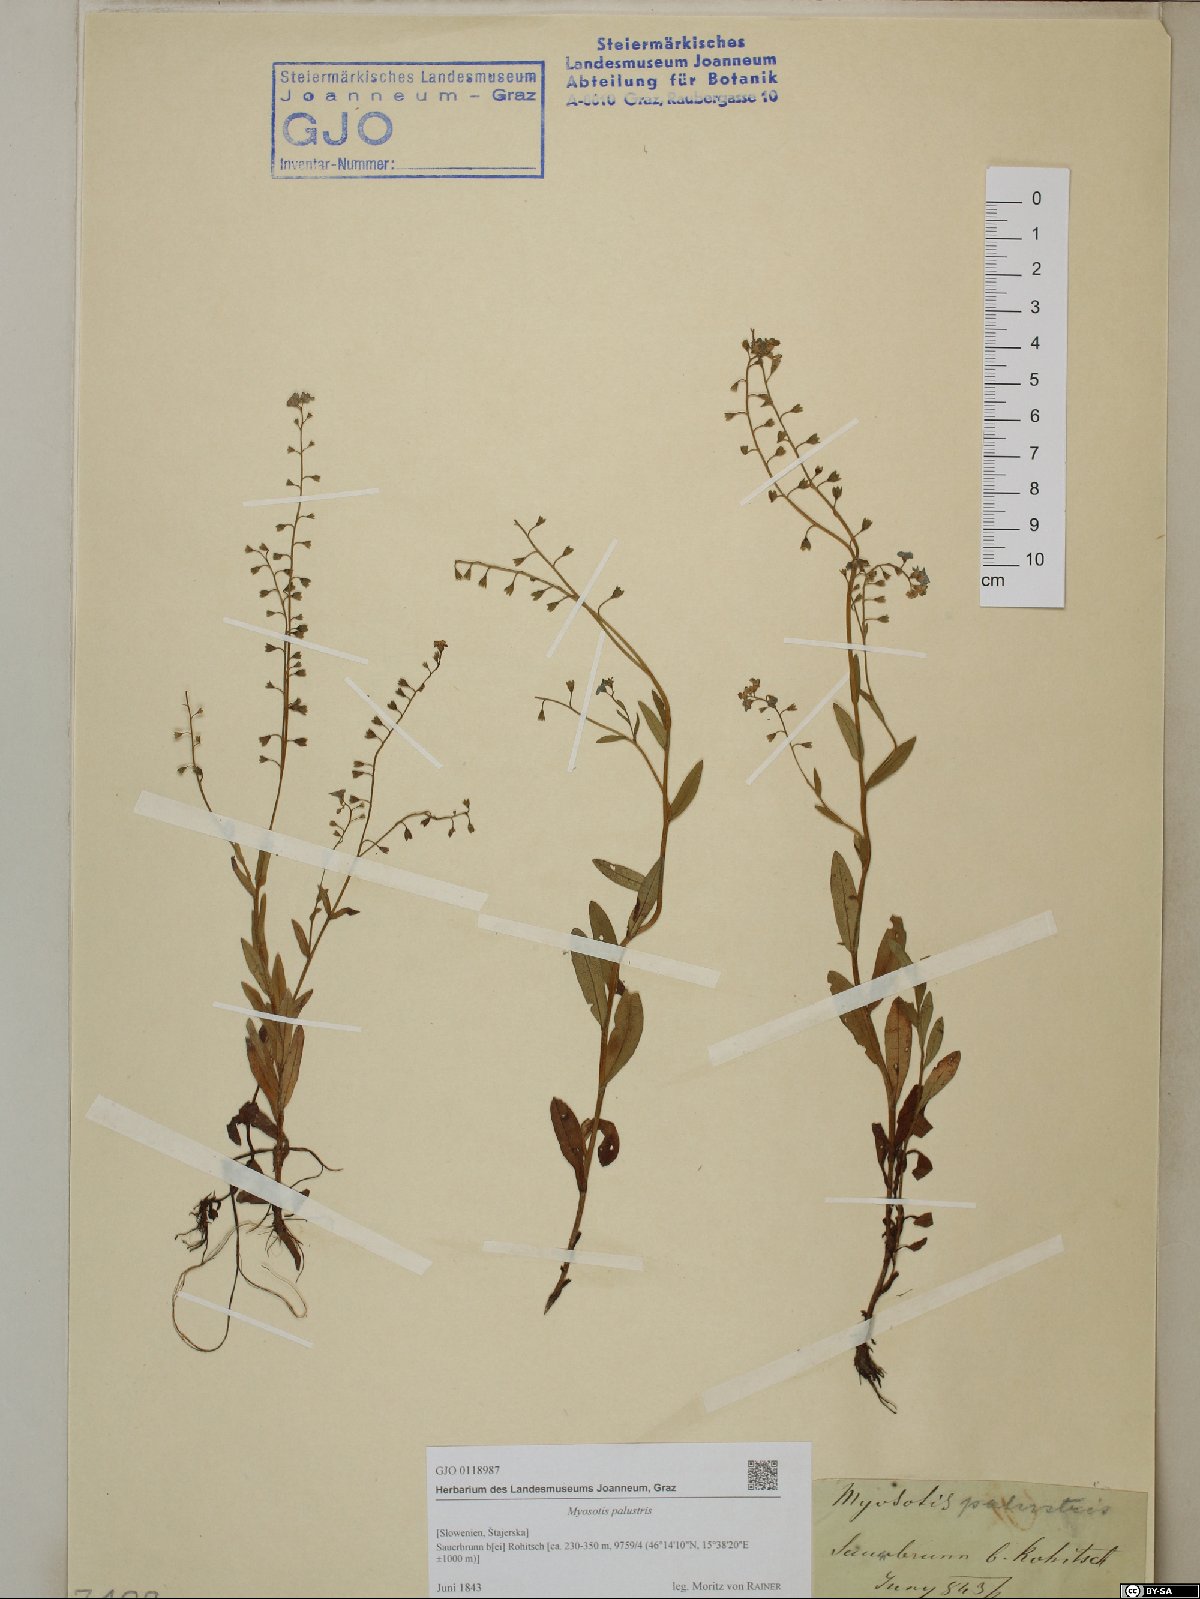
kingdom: Plantae
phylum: Tracheophyta
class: Magnoliopsida
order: Boraginales
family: Boraginaceae
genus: Myosotis
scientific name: Myosotis scorpioides
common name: Water forget-me-not
